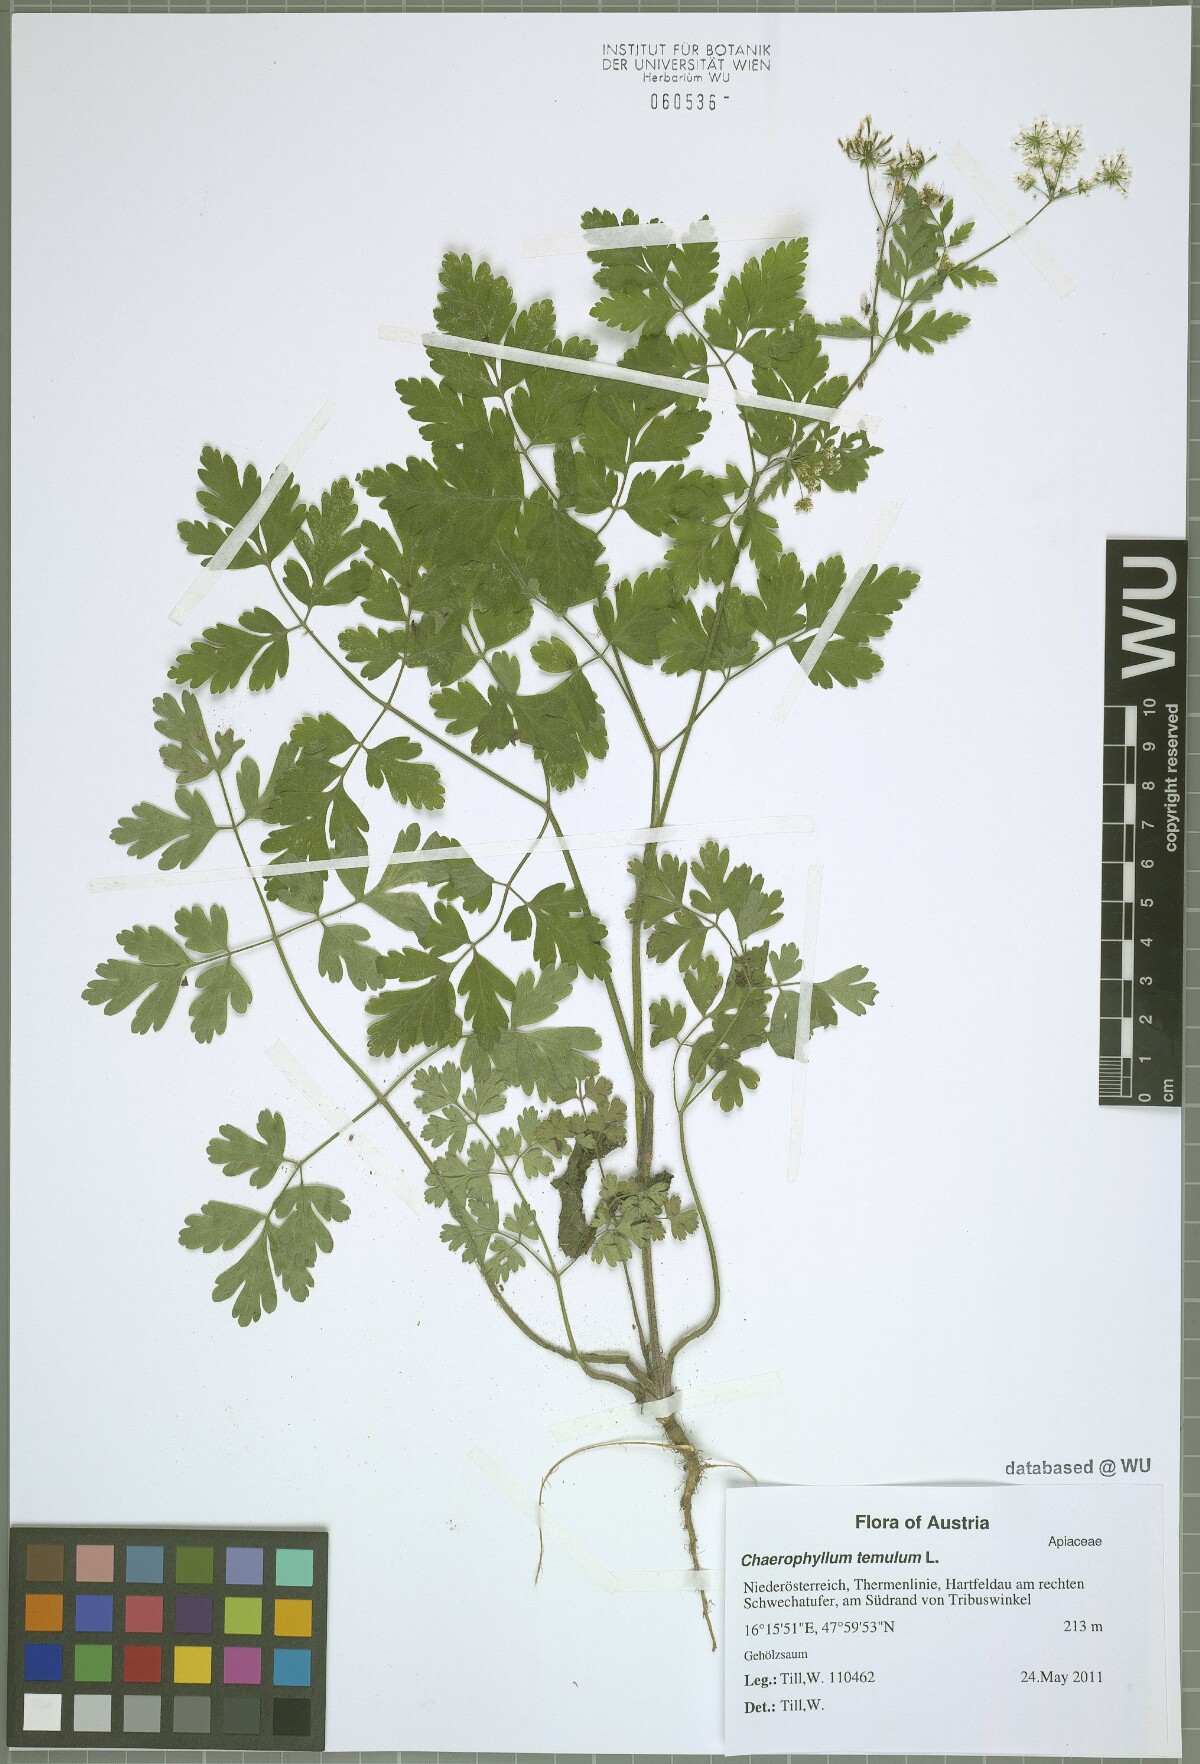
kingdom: Plantae
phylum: Tracheophyta
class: Magnoliopsida
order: Apiales
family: Apiaceae
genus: Chaerophyllum
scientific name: Chaerophyllum temulum
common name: Rough chervil
